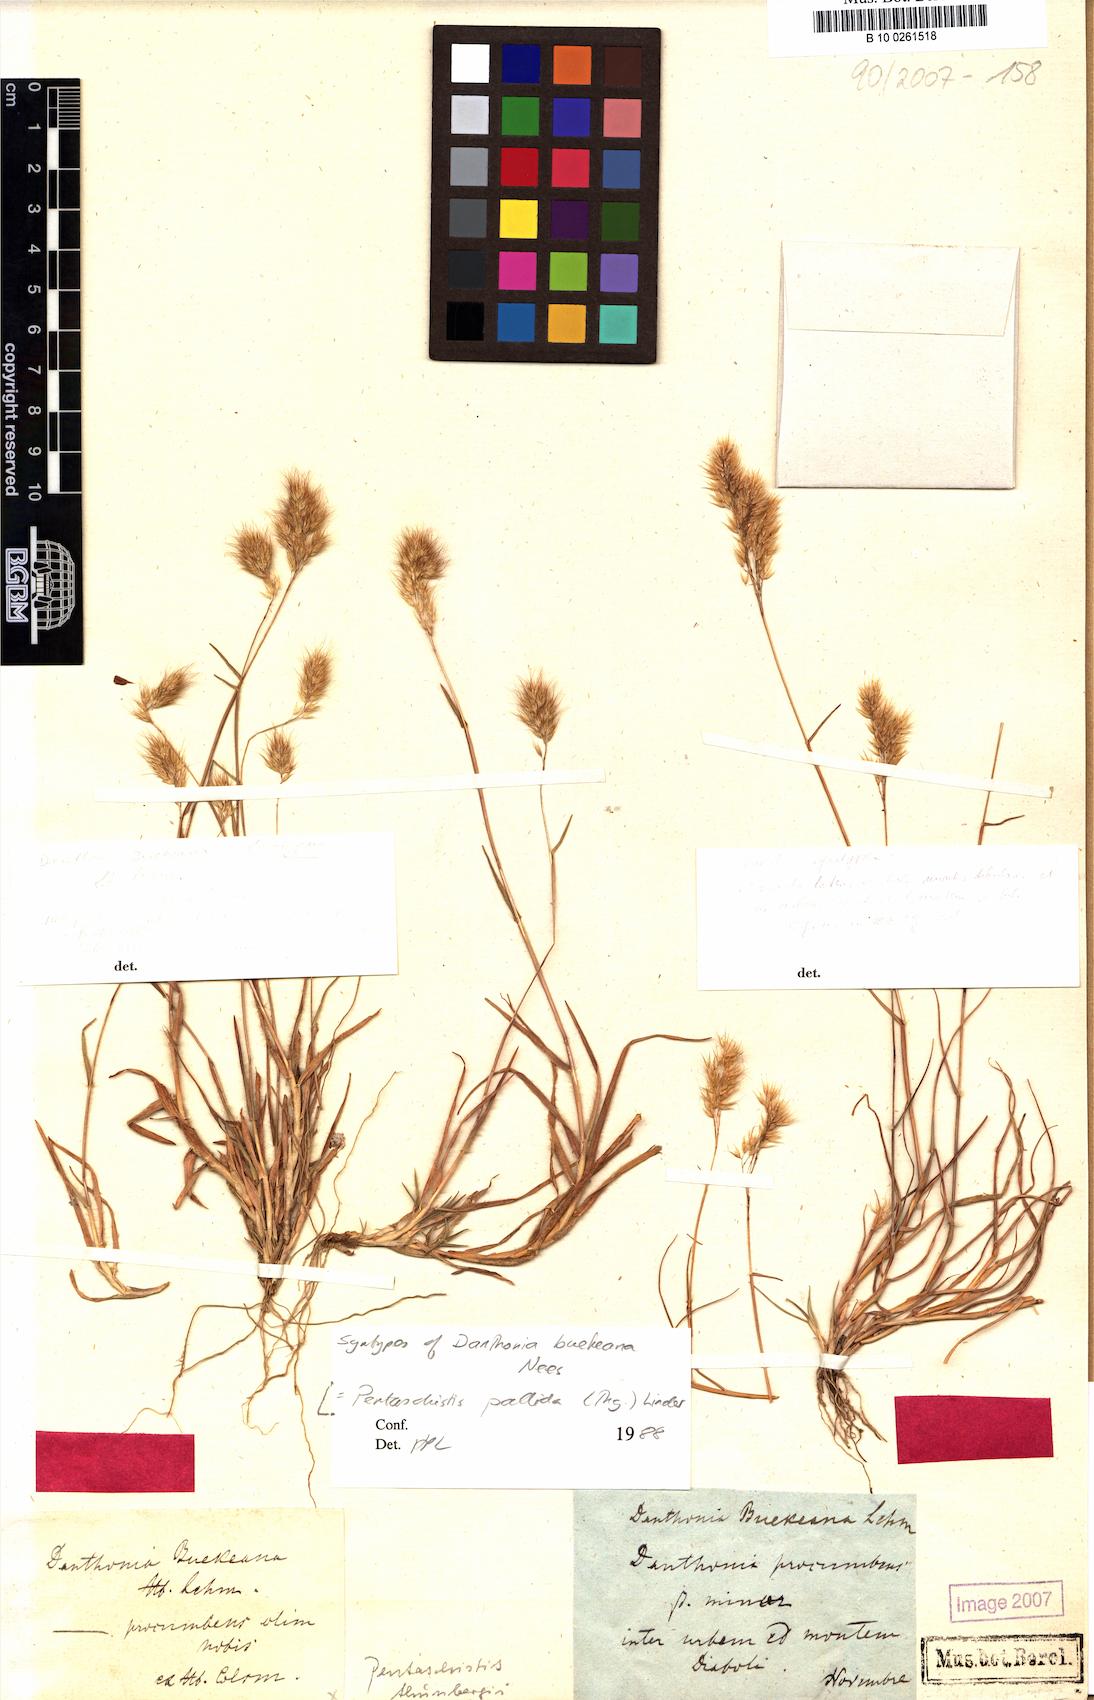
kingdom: Plantae
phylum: Tracheophyta
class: Liliopsida
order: Poales
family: Poaceae
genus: Pentameris
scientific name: Pentameris pallida
